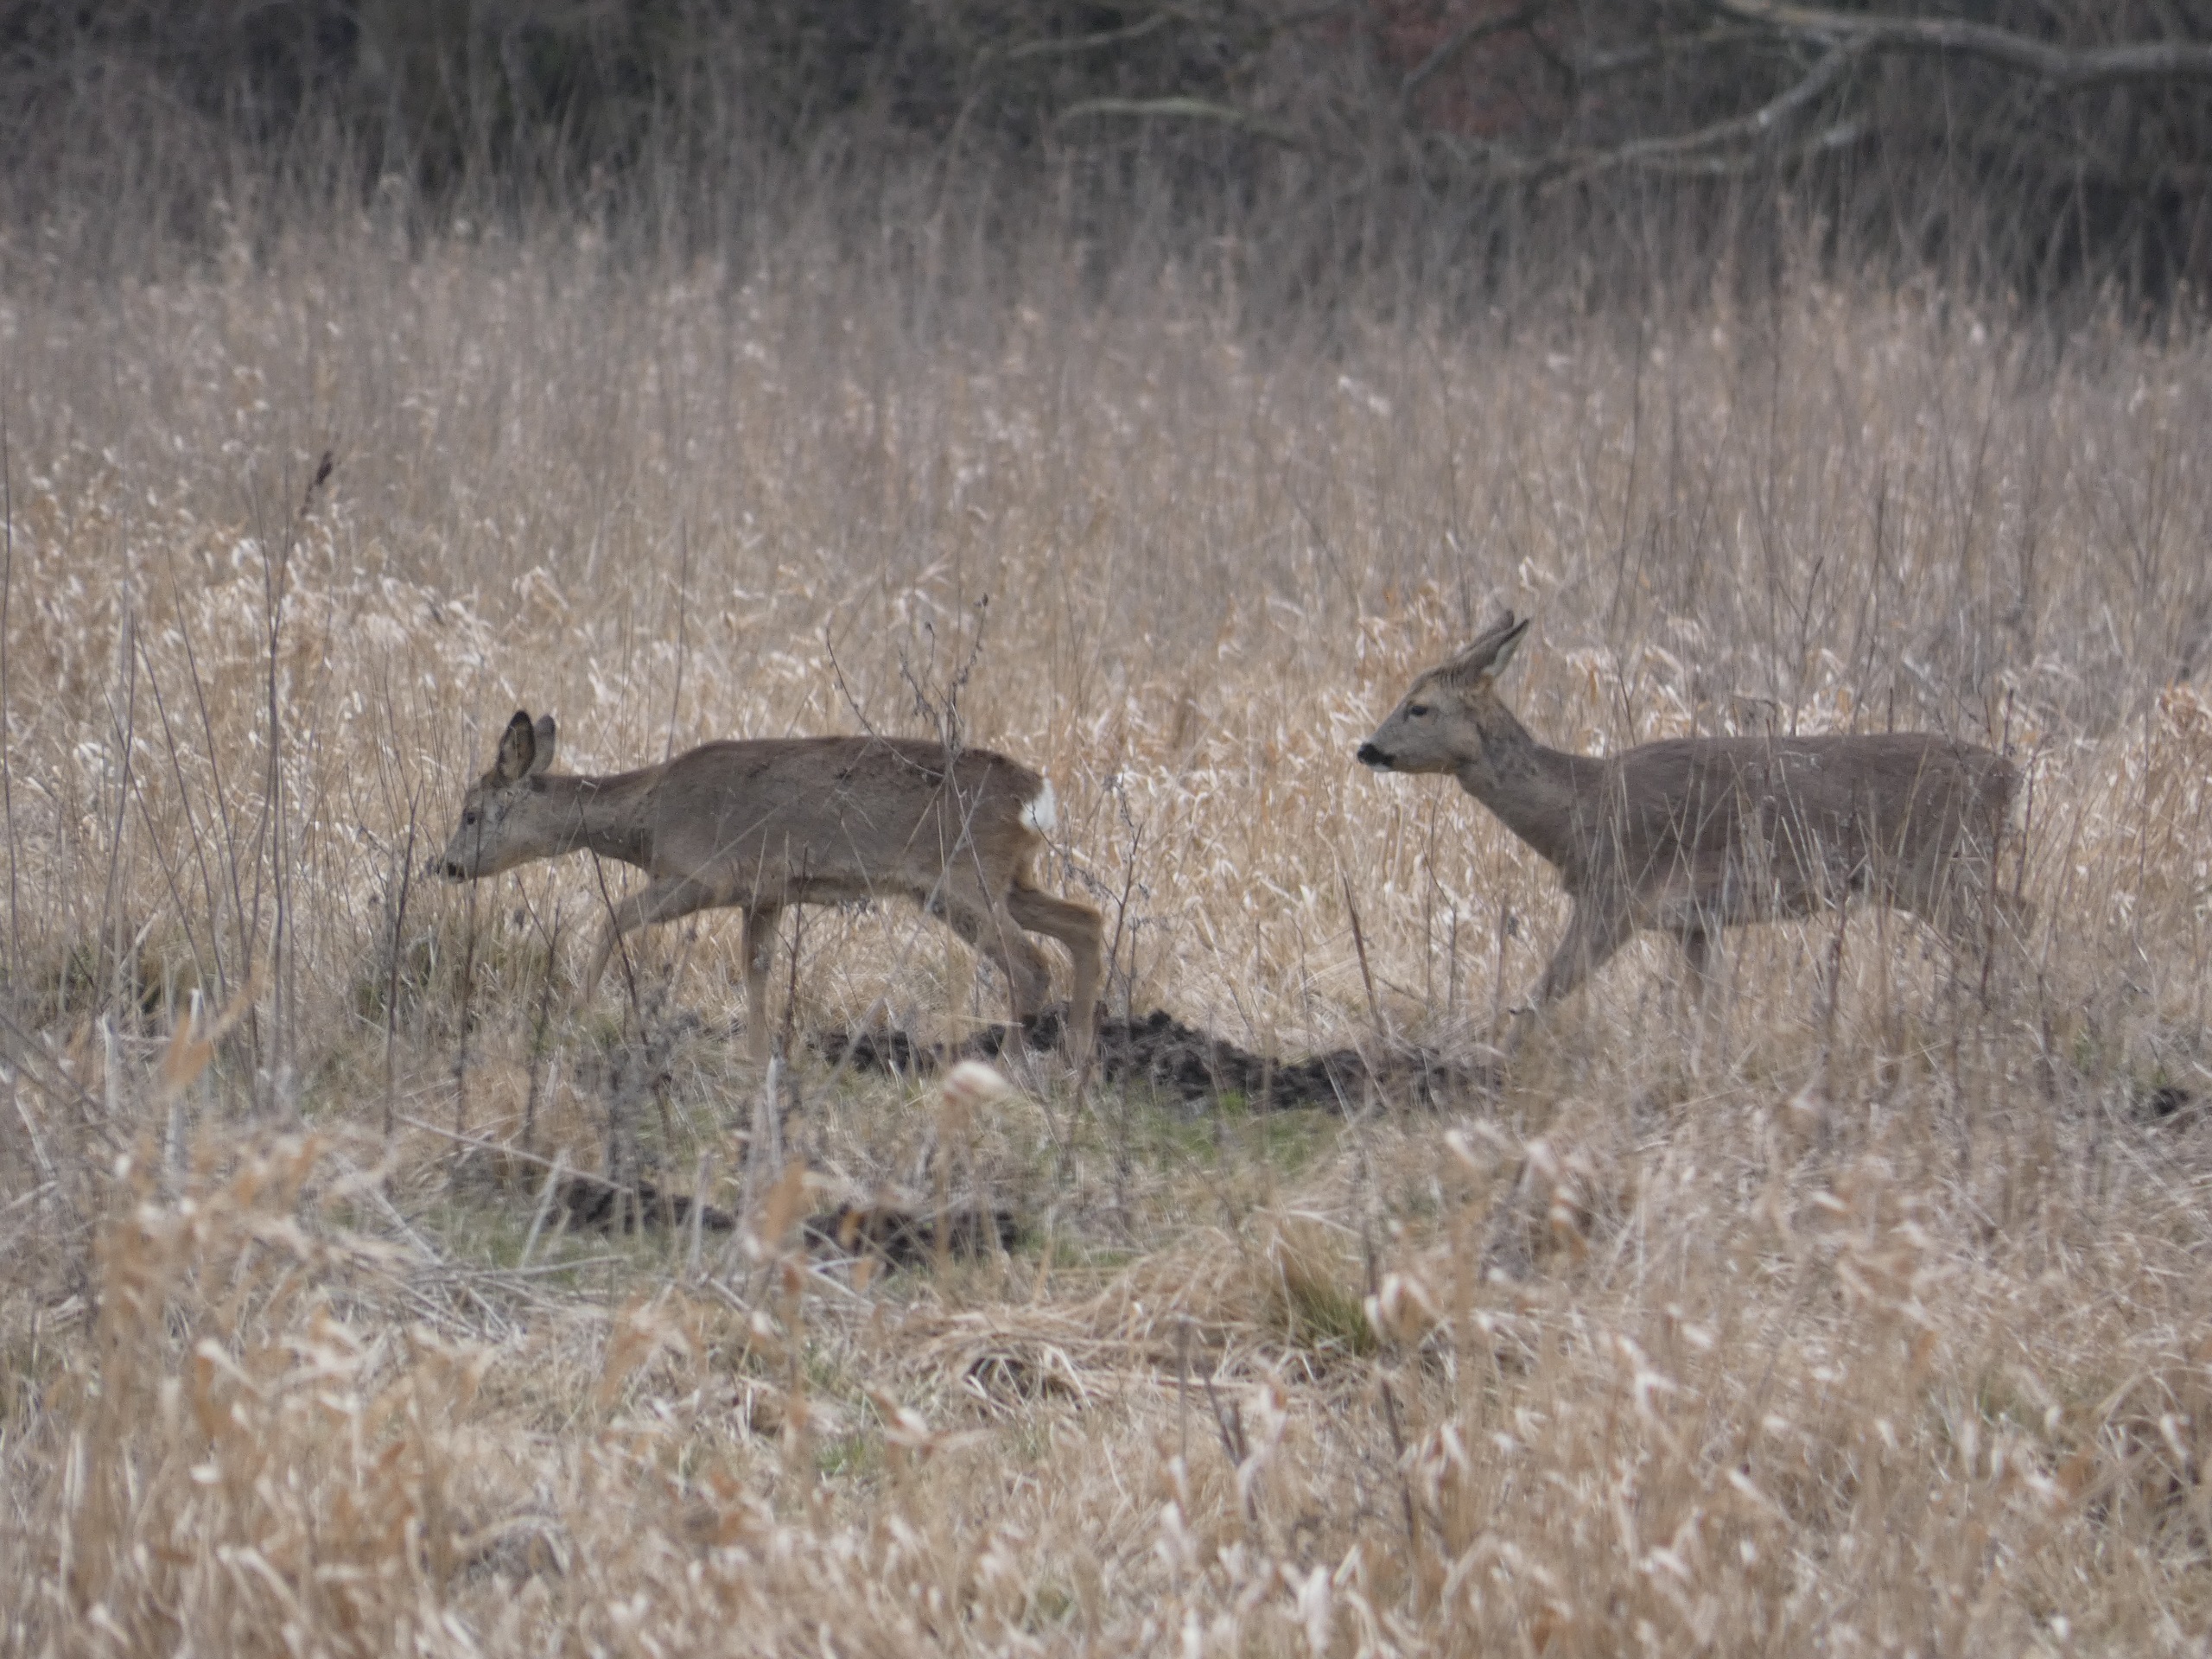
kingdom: Animalia
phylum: Chordata
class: Mammalia
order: Artiodactyla
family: Cervidae
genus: Capreolus
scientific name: Capreolus capreolus
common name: Rådyr
